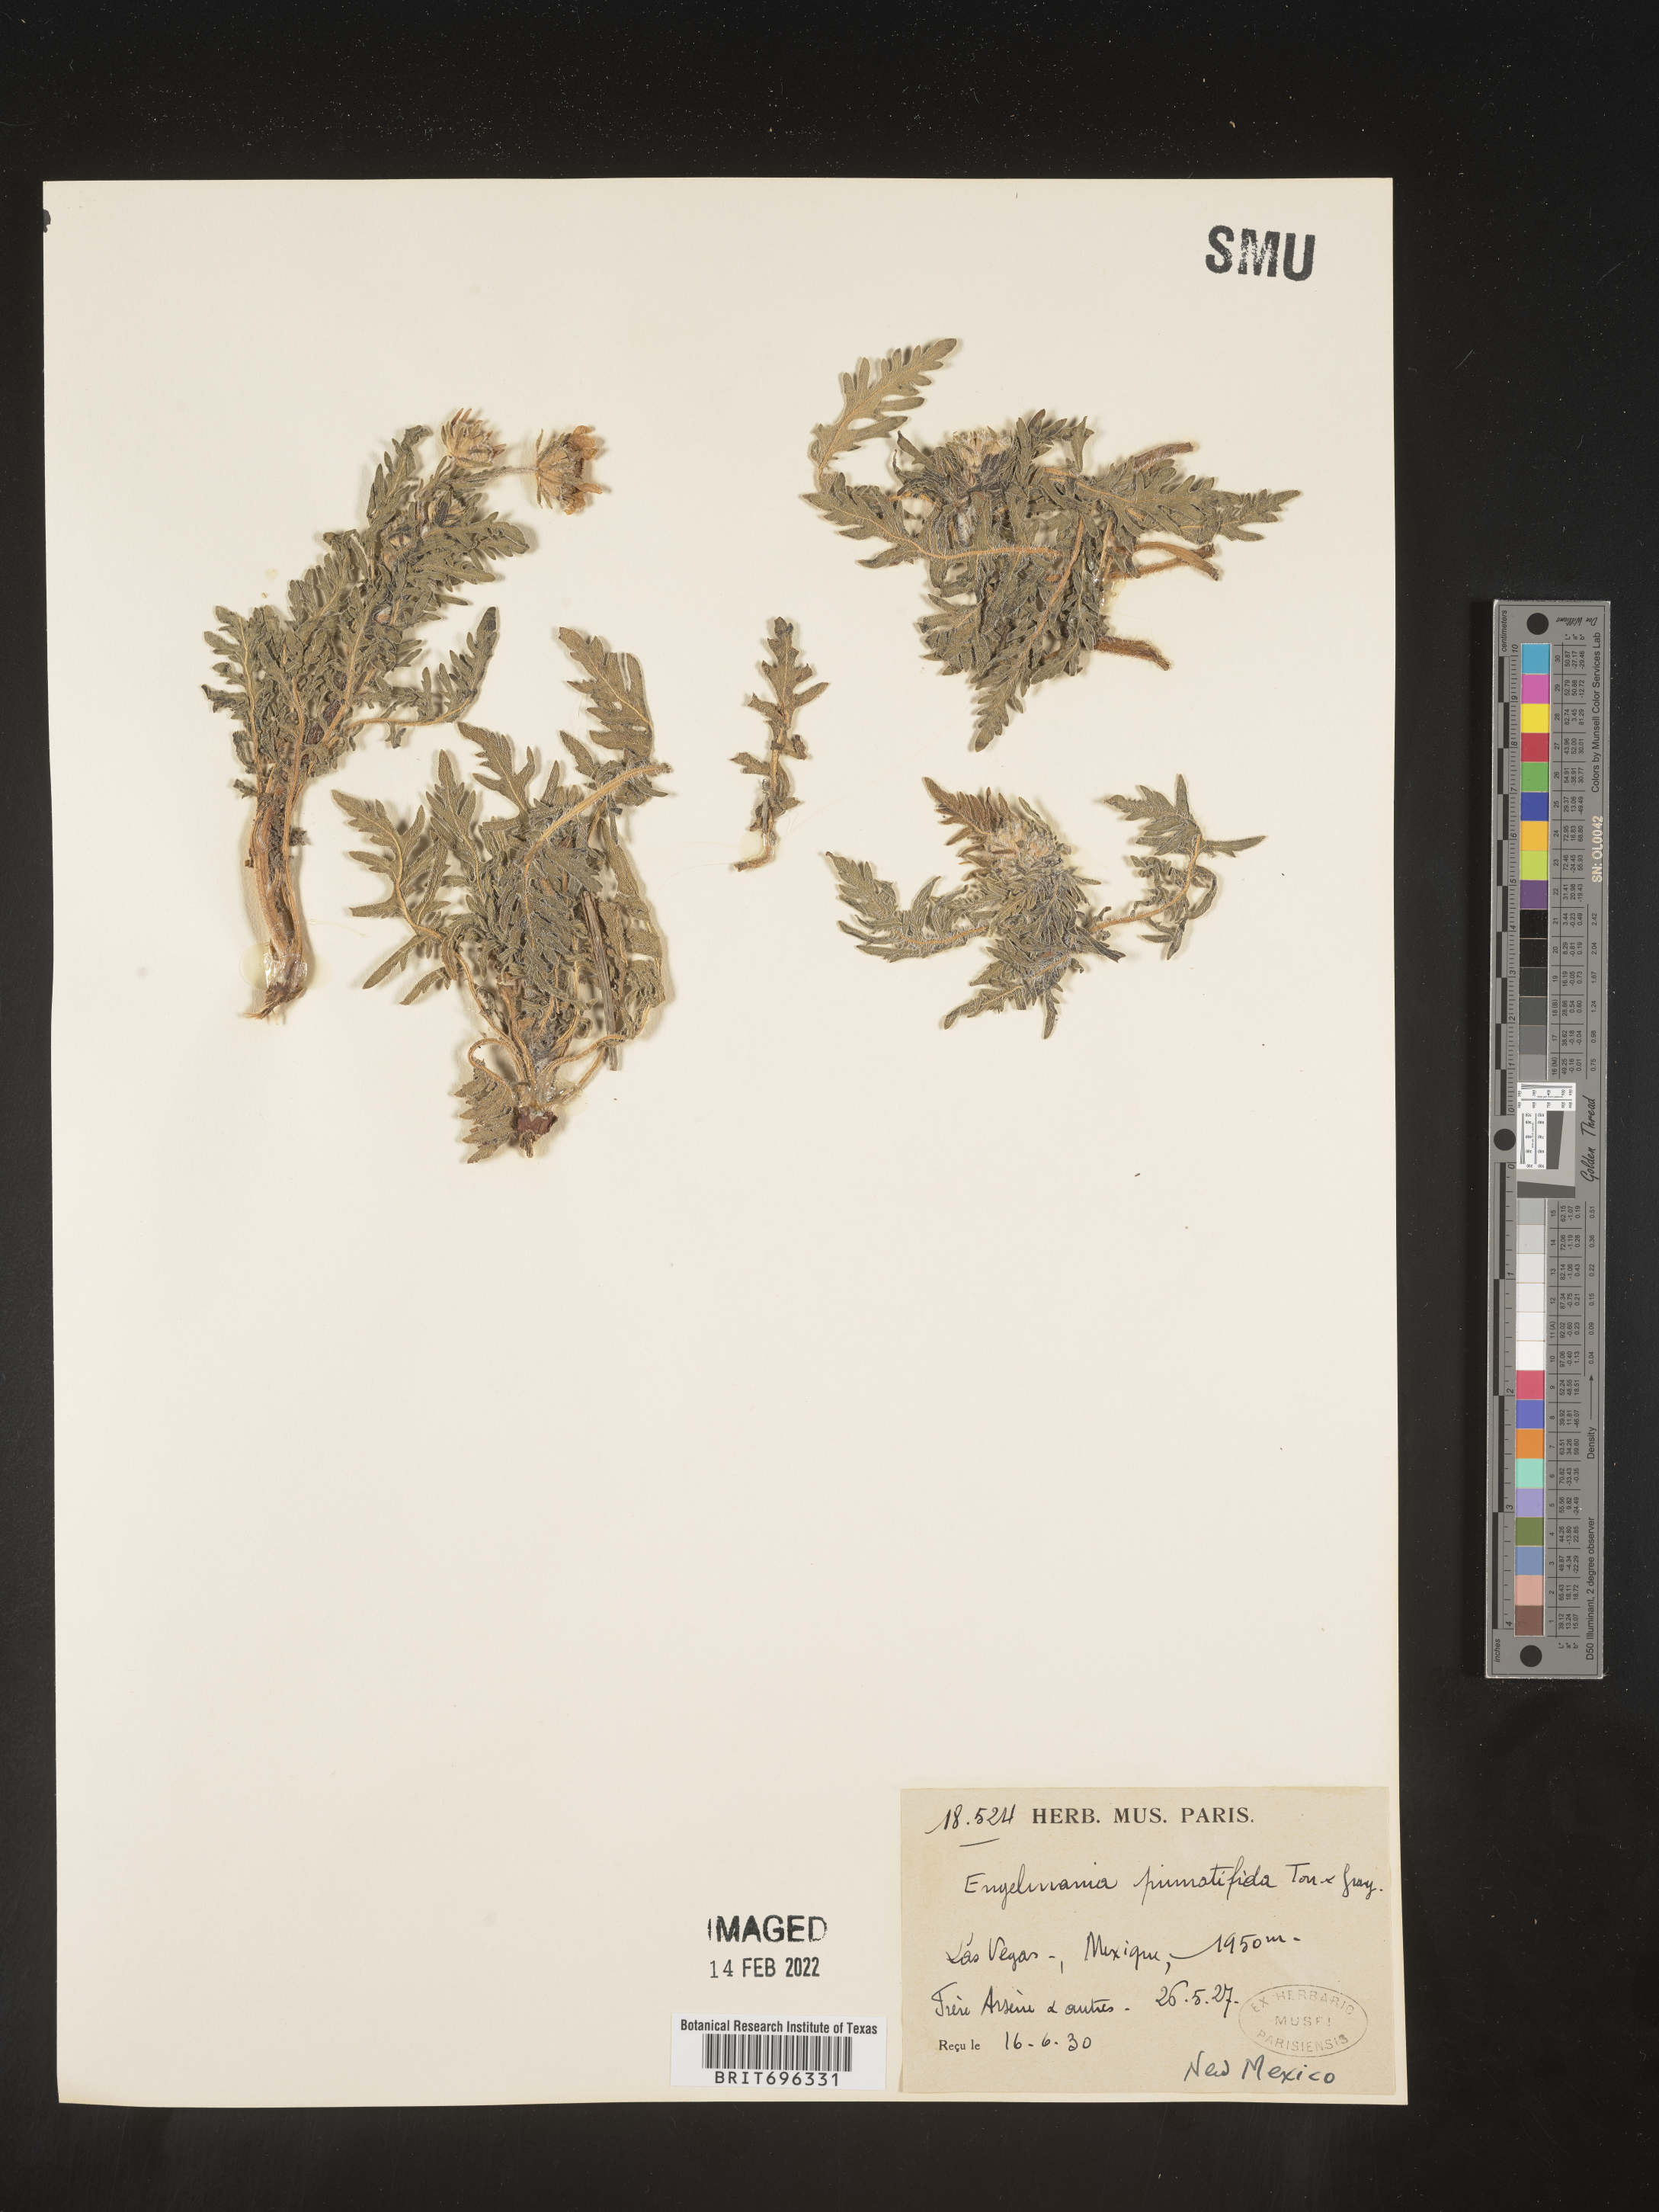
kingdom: Plantae
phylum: Tracheophyta
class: Magnoliopsida
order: Asterales
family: Asteraceae
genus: Engelmannia
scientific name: Engelmannia peristenia
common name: Engelmann's daisy
